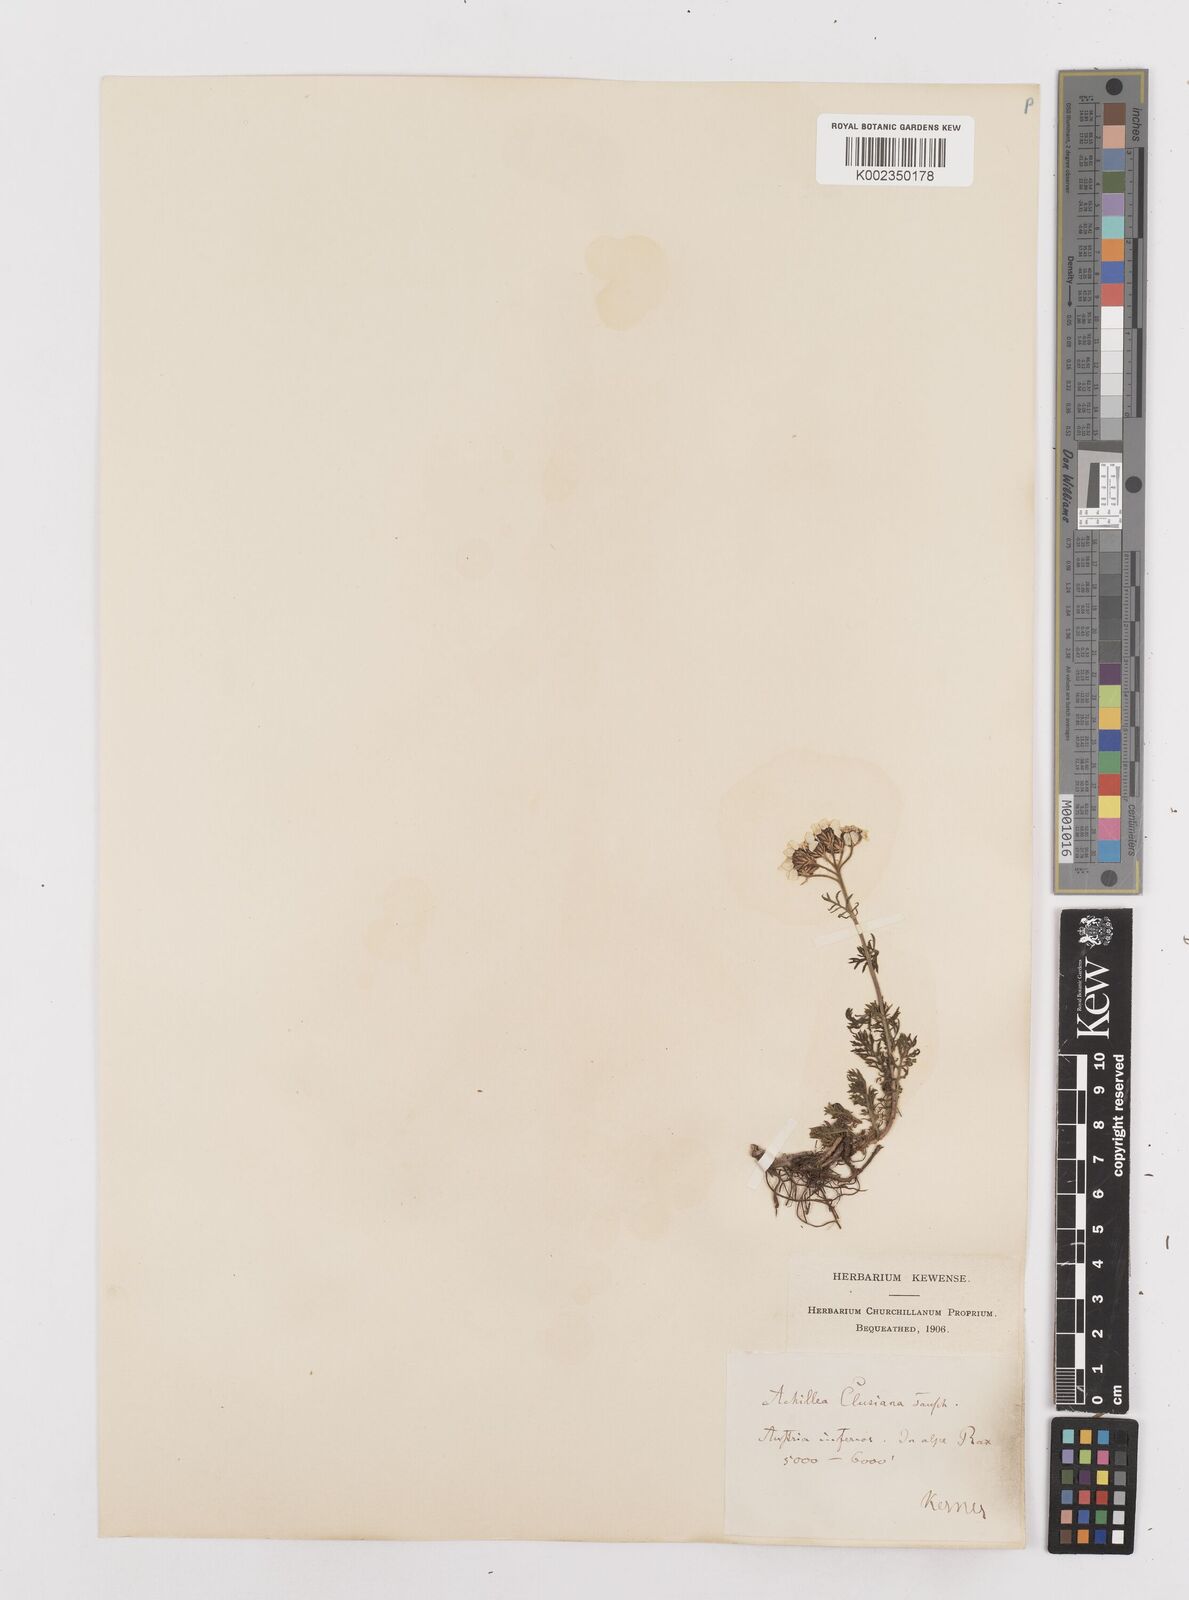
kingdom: Plantae
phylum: Tracheophyta
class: Magnoliopsida
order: Asterales
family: Asteraceae
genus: Achillea
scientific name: Achillea clusiana
